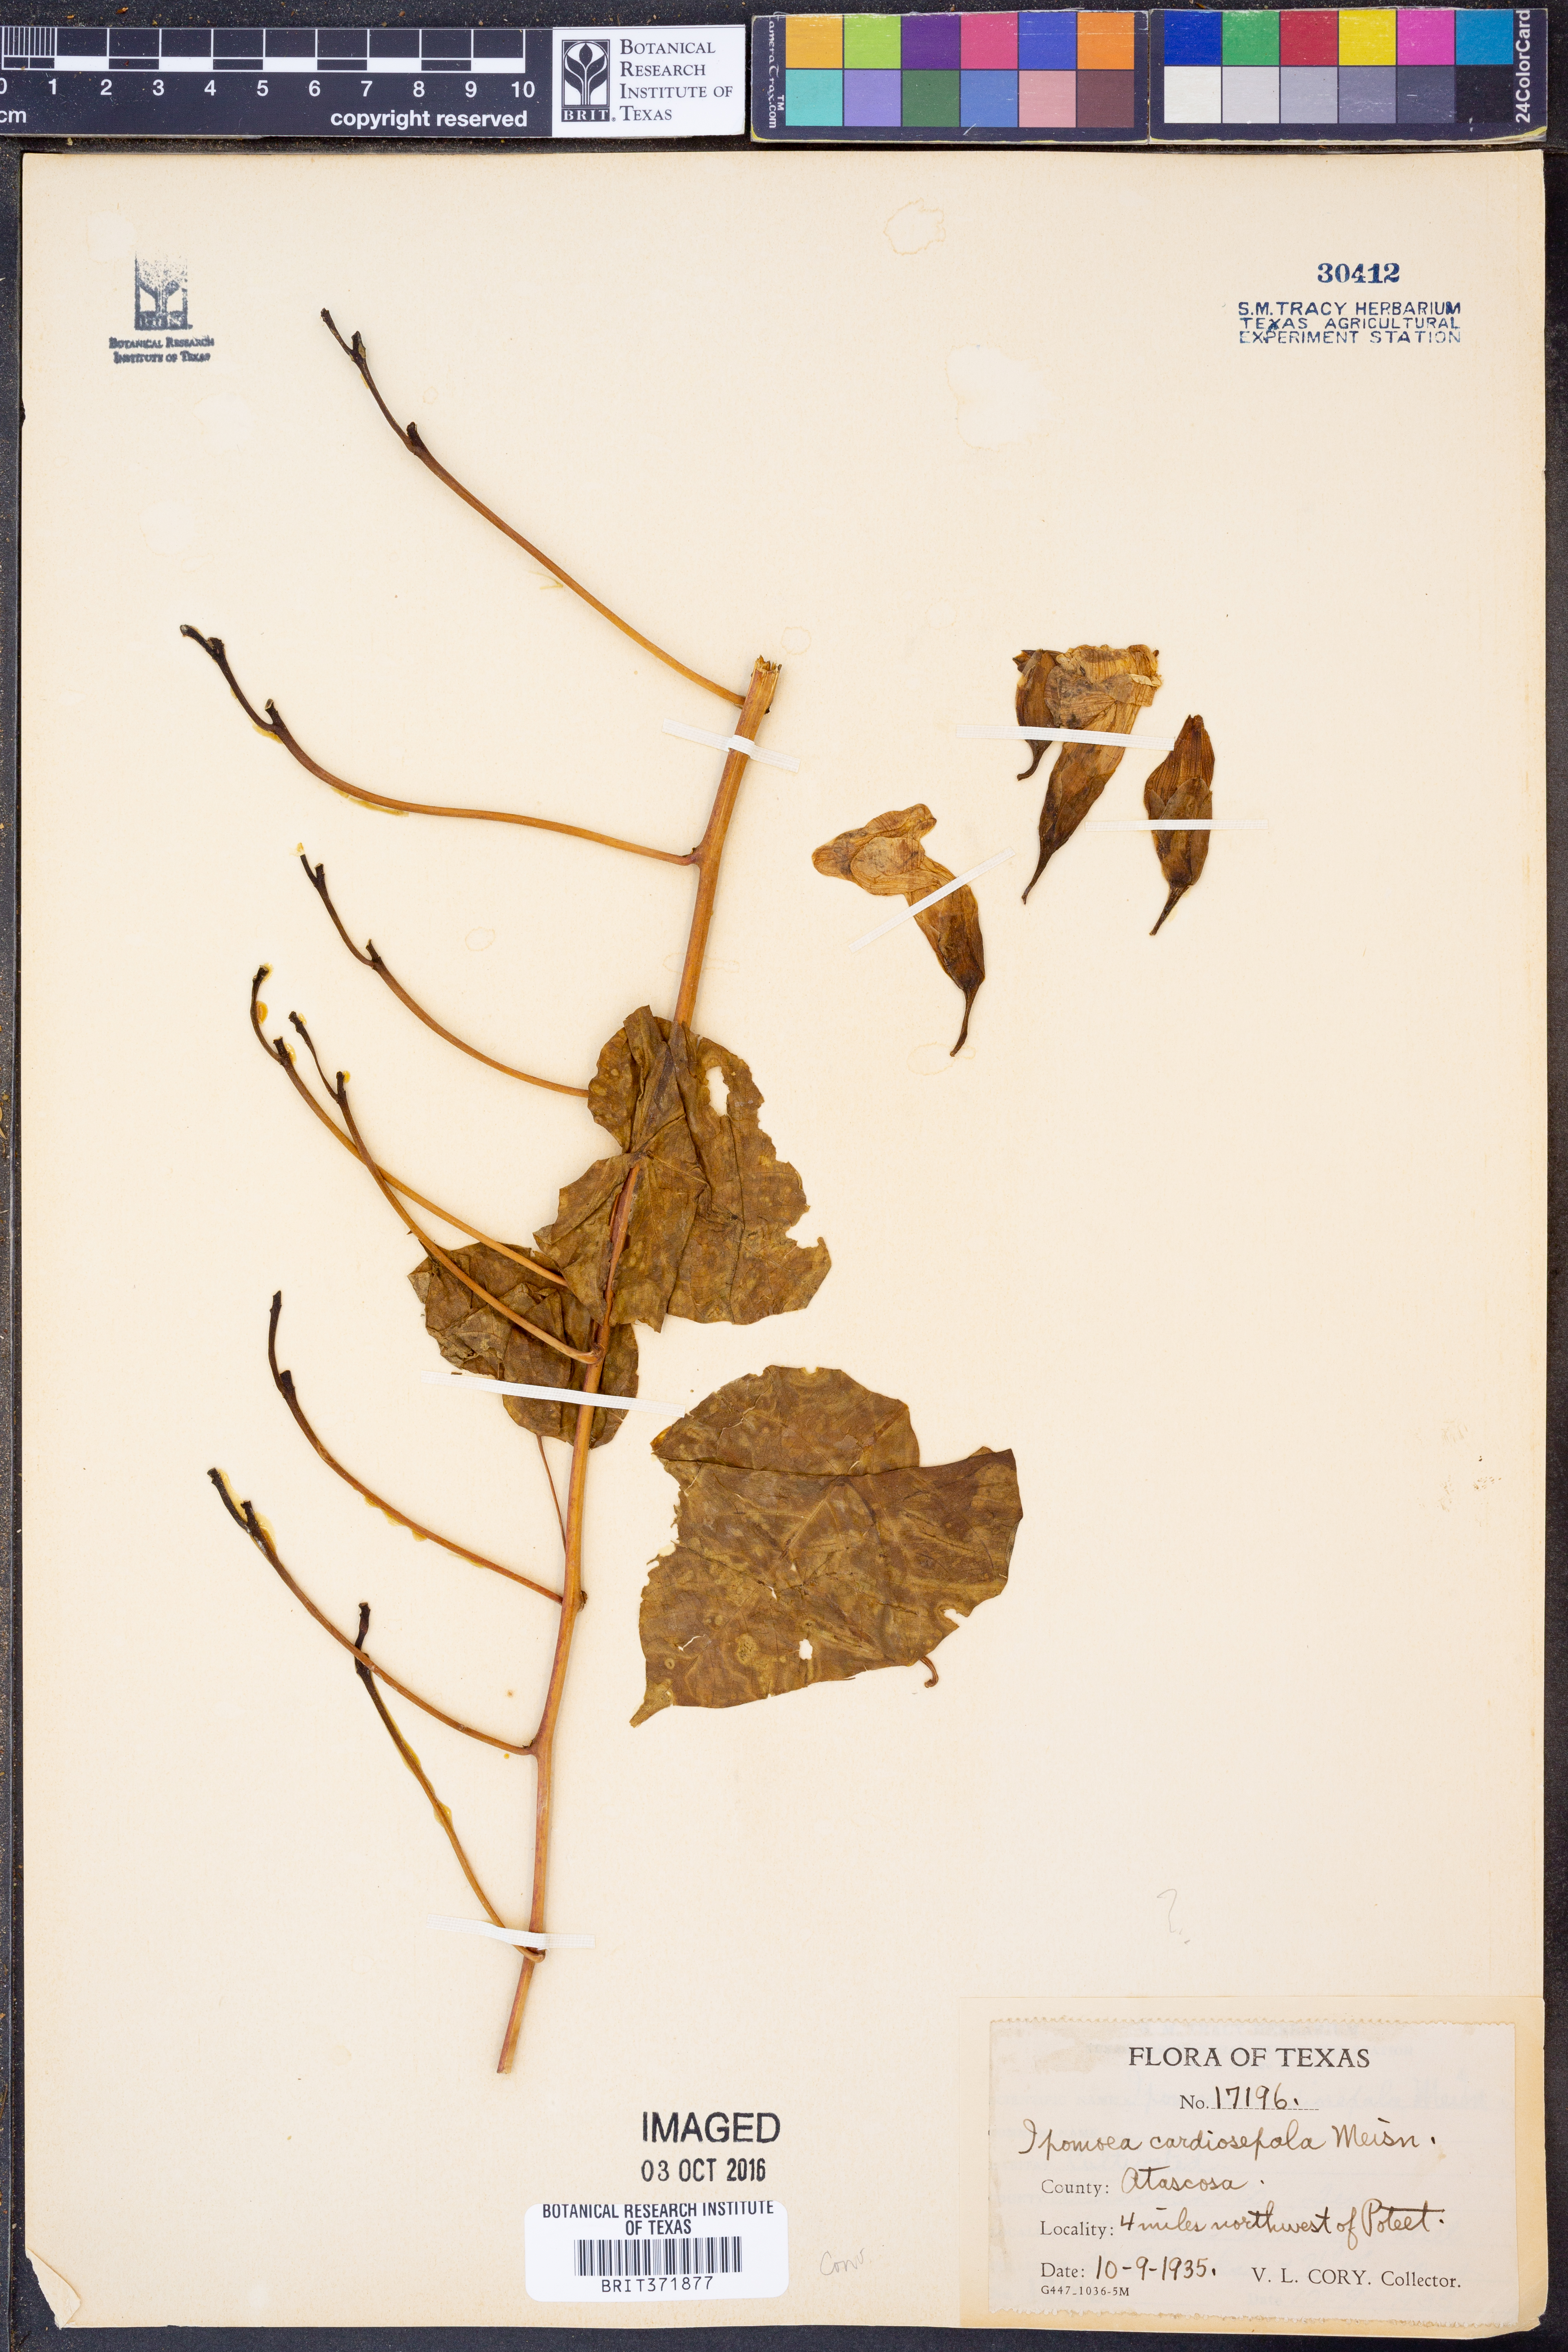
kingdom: Plantae
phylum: Tracheophyta
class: Magnoliopsida
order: Solanales
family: Convolvulaceae
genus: Ipomoea
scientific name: Ipomoea philomega
